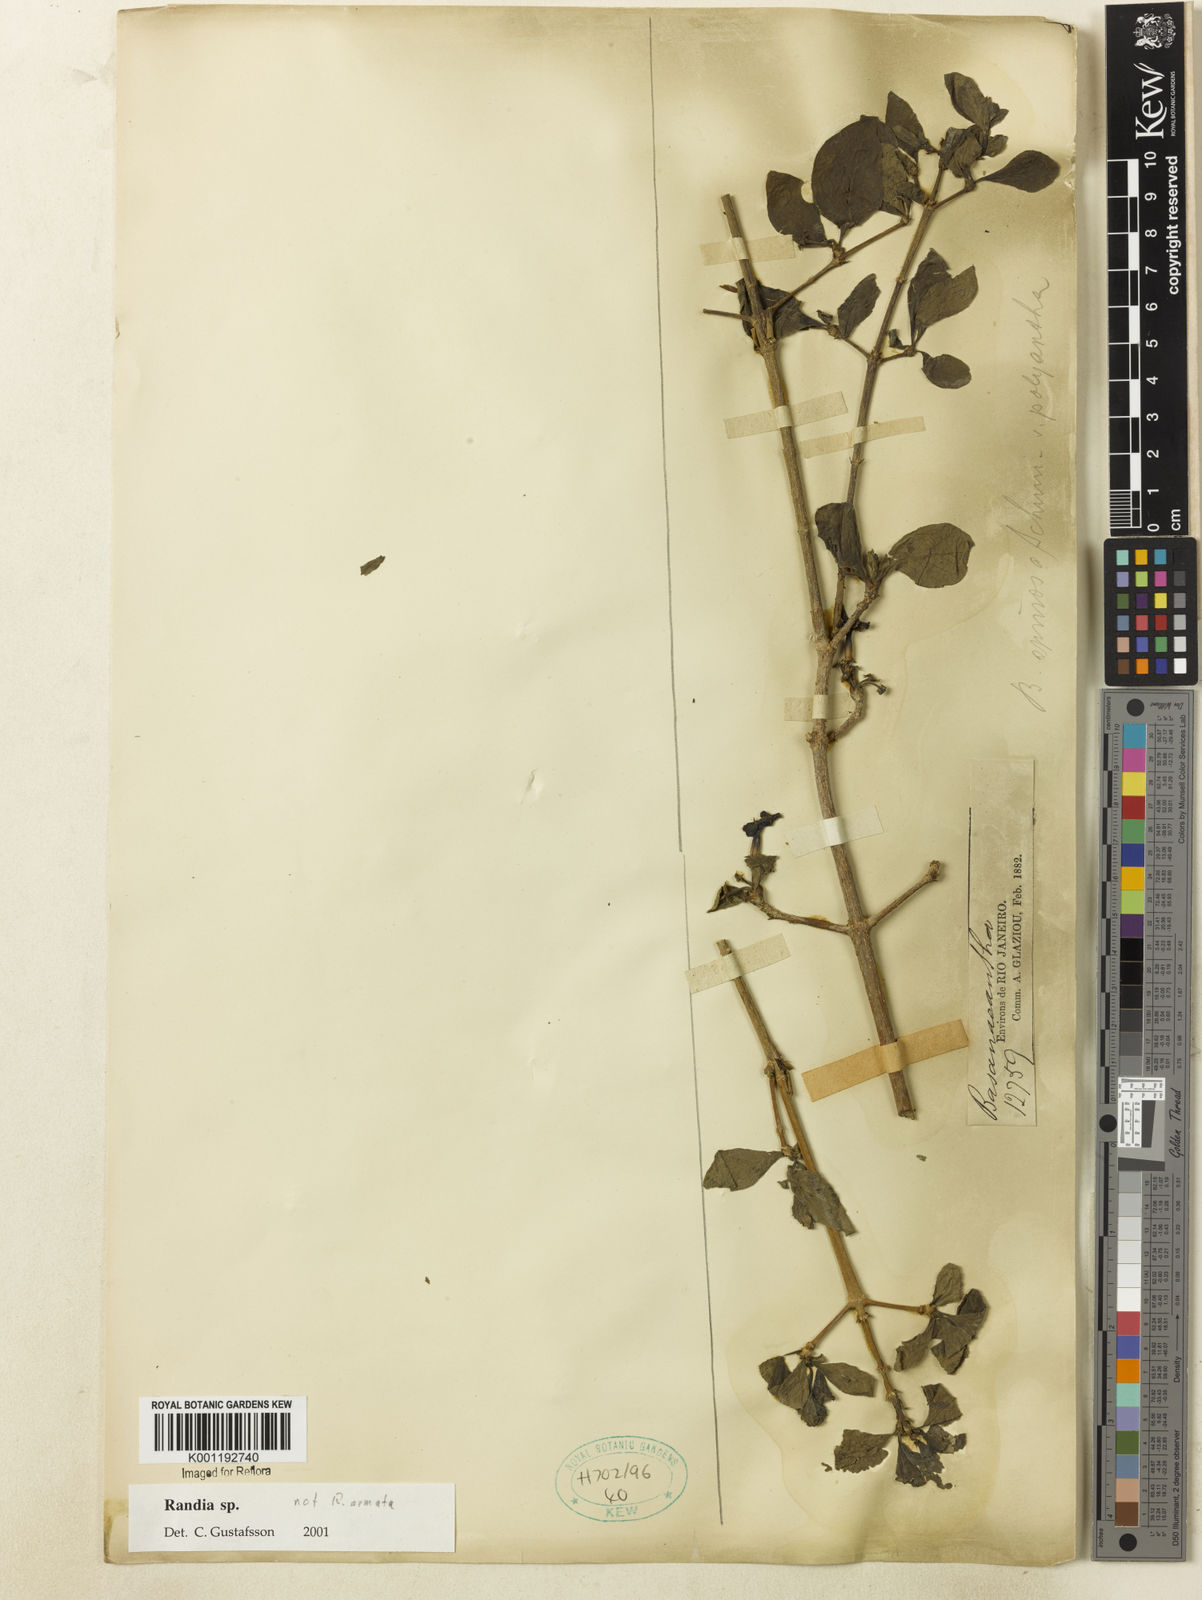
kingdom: Plantae
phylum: Tracheophyta
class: Magnoliopsida
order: Gentianales
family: Rubiaceae
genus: Randia
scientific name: Randia
